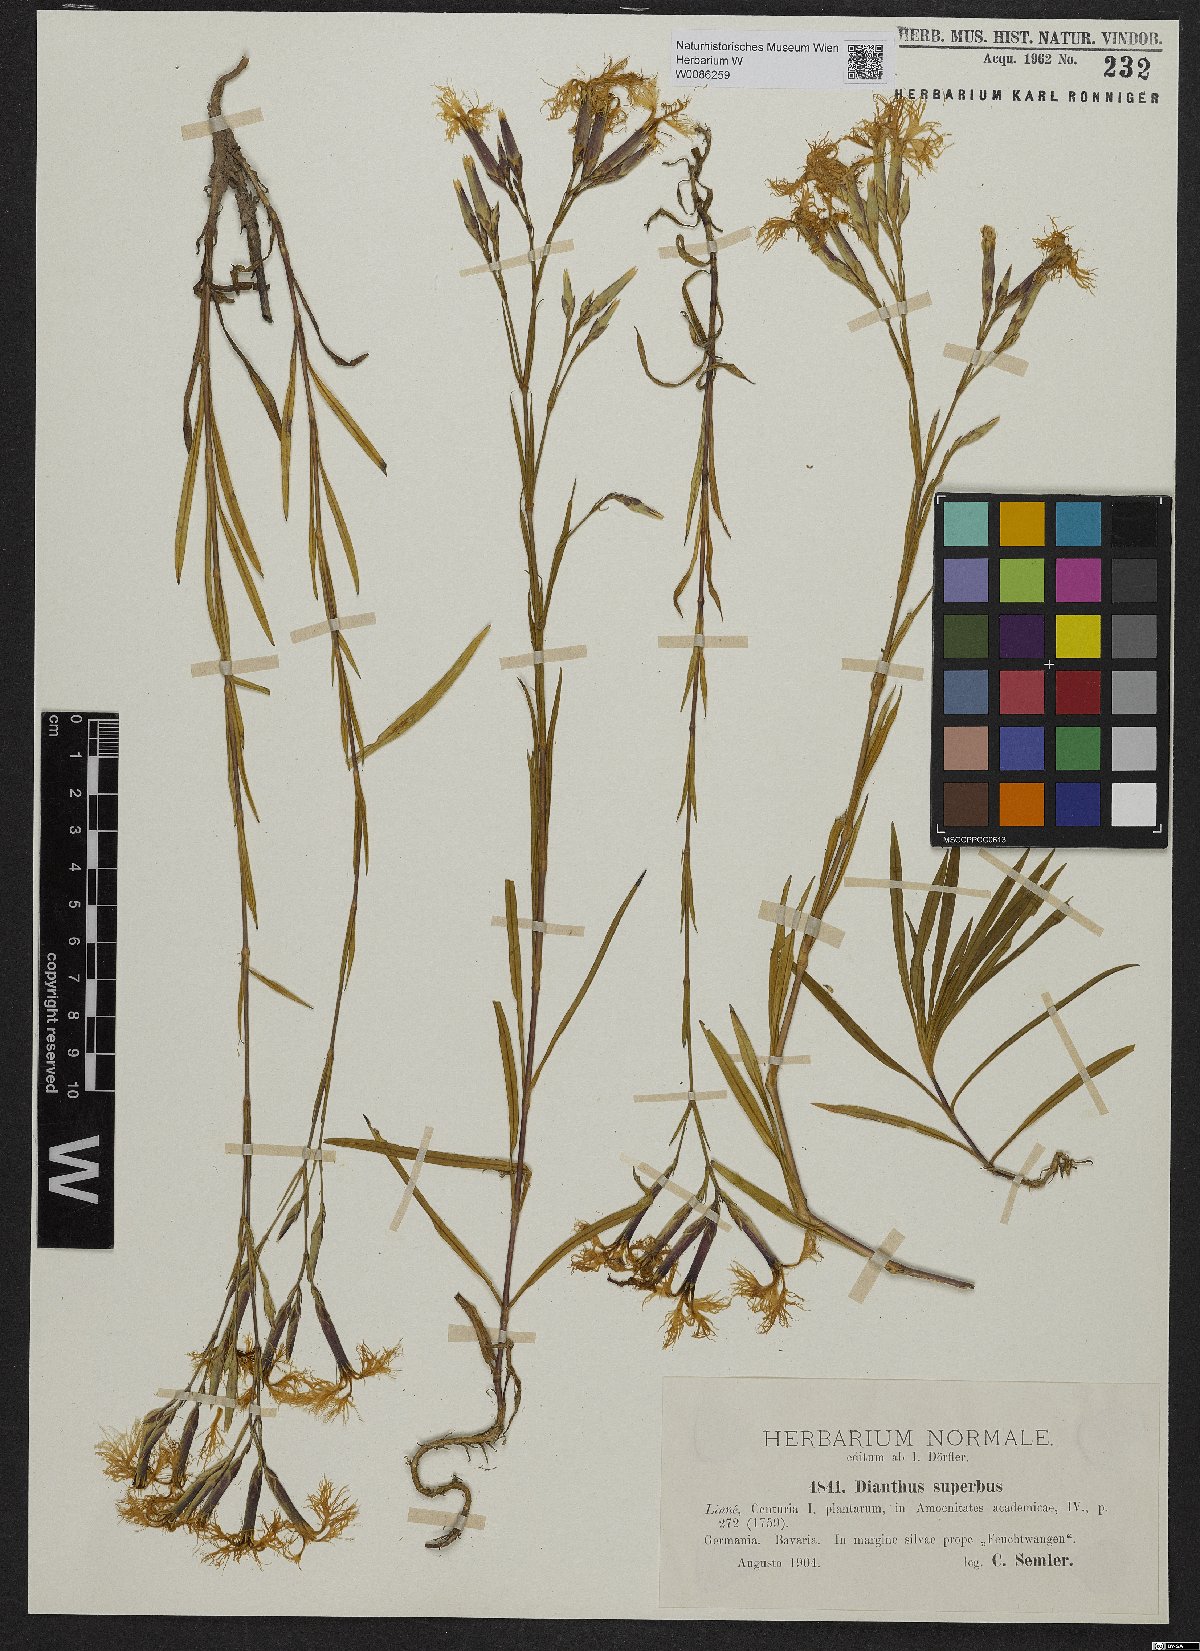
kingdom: Plantae
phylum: Tracheophyta
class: Magnoliopsida
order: Caryophyllales
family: Caryophyllaceae
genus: Dianthus
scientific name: Dianthus superbus
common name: Fringed pink
